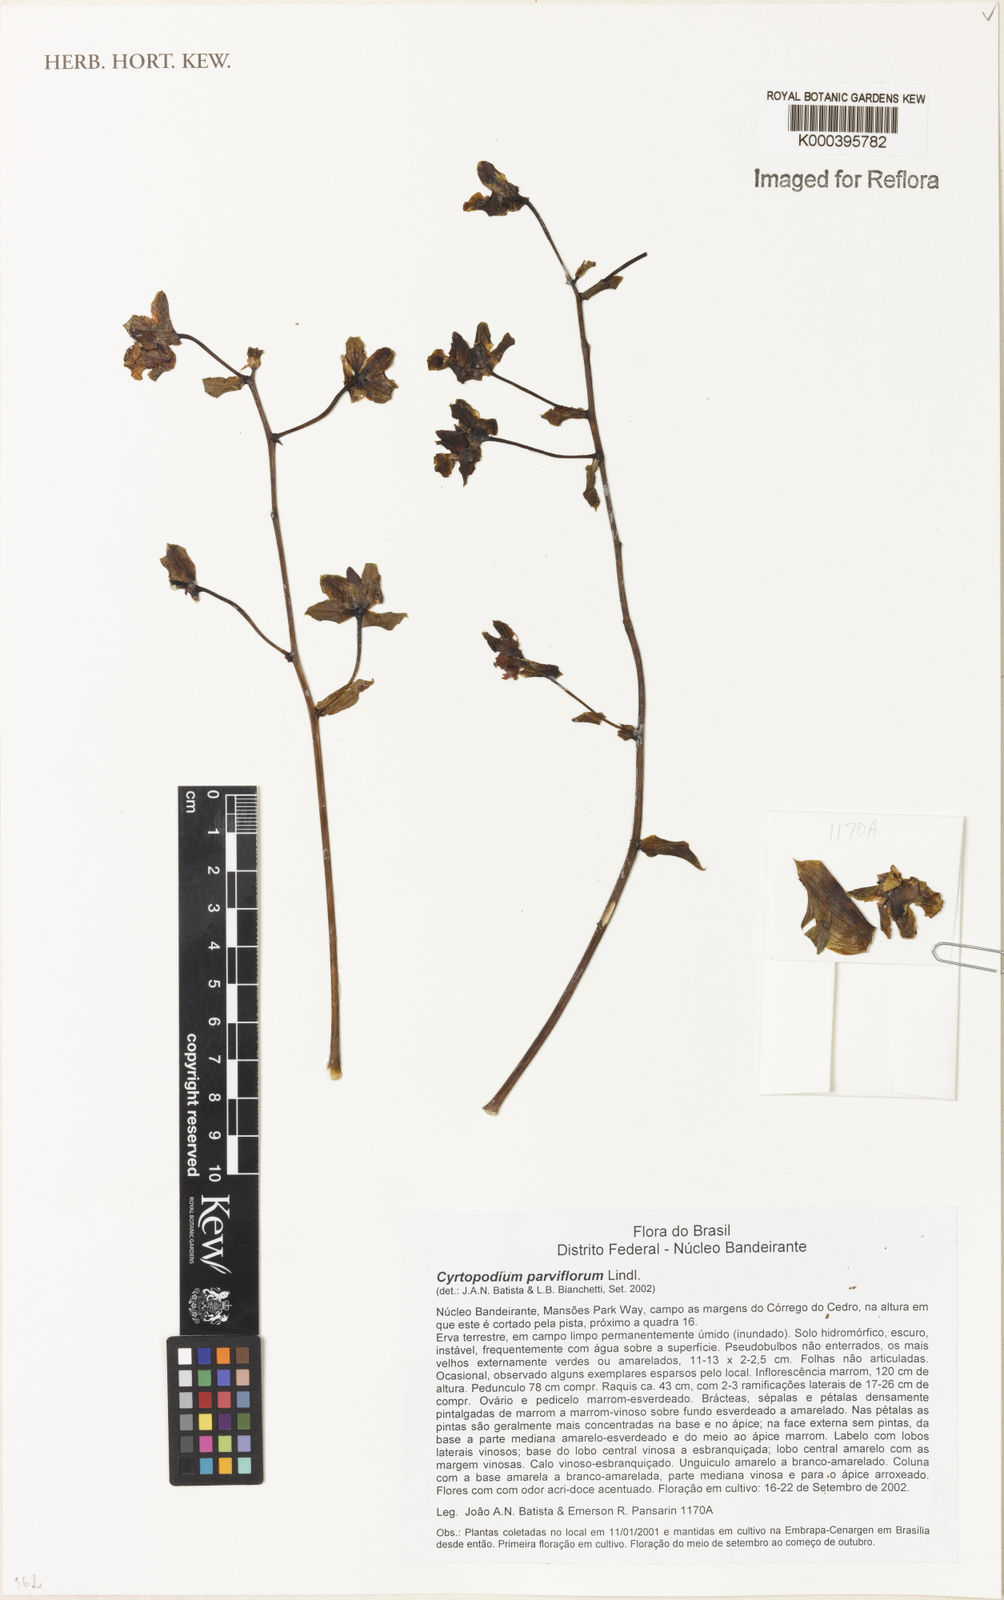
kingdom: Plantae
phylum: Tracheophyta
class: Liliopsida
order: Asparagales
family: Orchidaceae
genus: Cyrtopodium
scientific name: Cyrtopodium parviflorum
